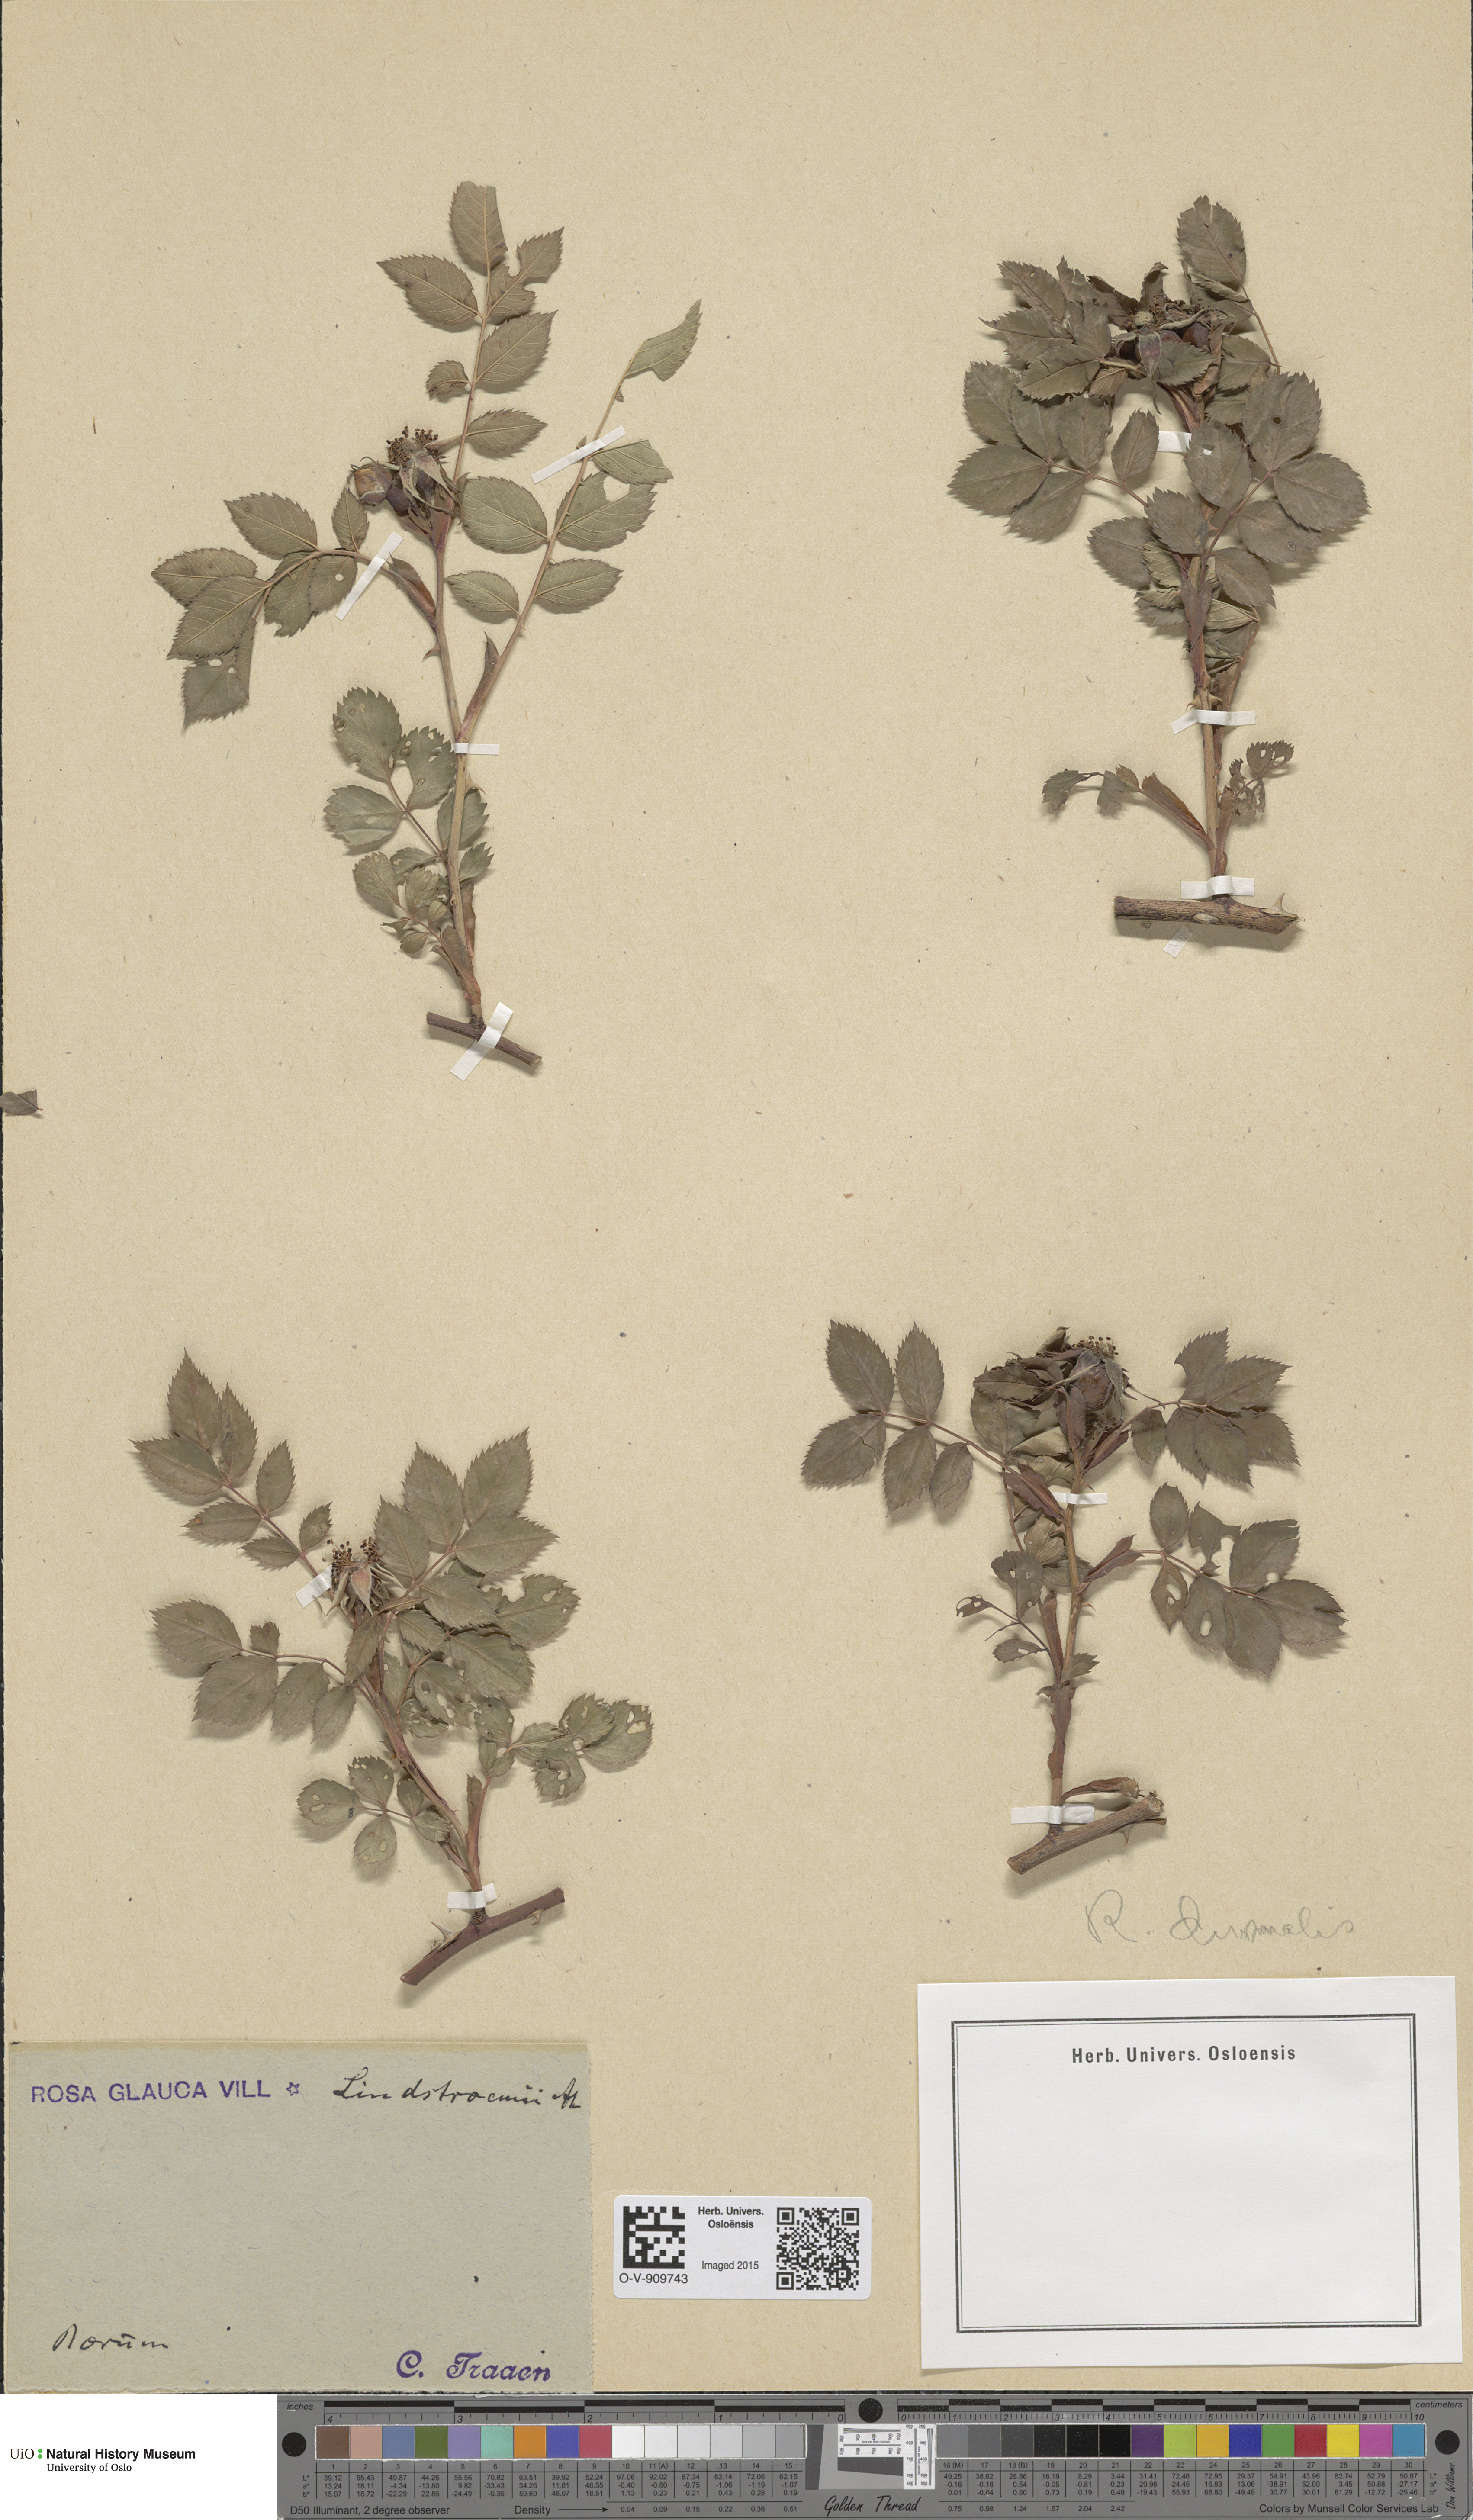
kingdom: Plantae
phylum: Tracheophyta
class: Magnoliopsida
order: Rosales
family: Rosaceae
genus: Rosa
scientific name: Rosa glauca
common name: Redleaf rose
